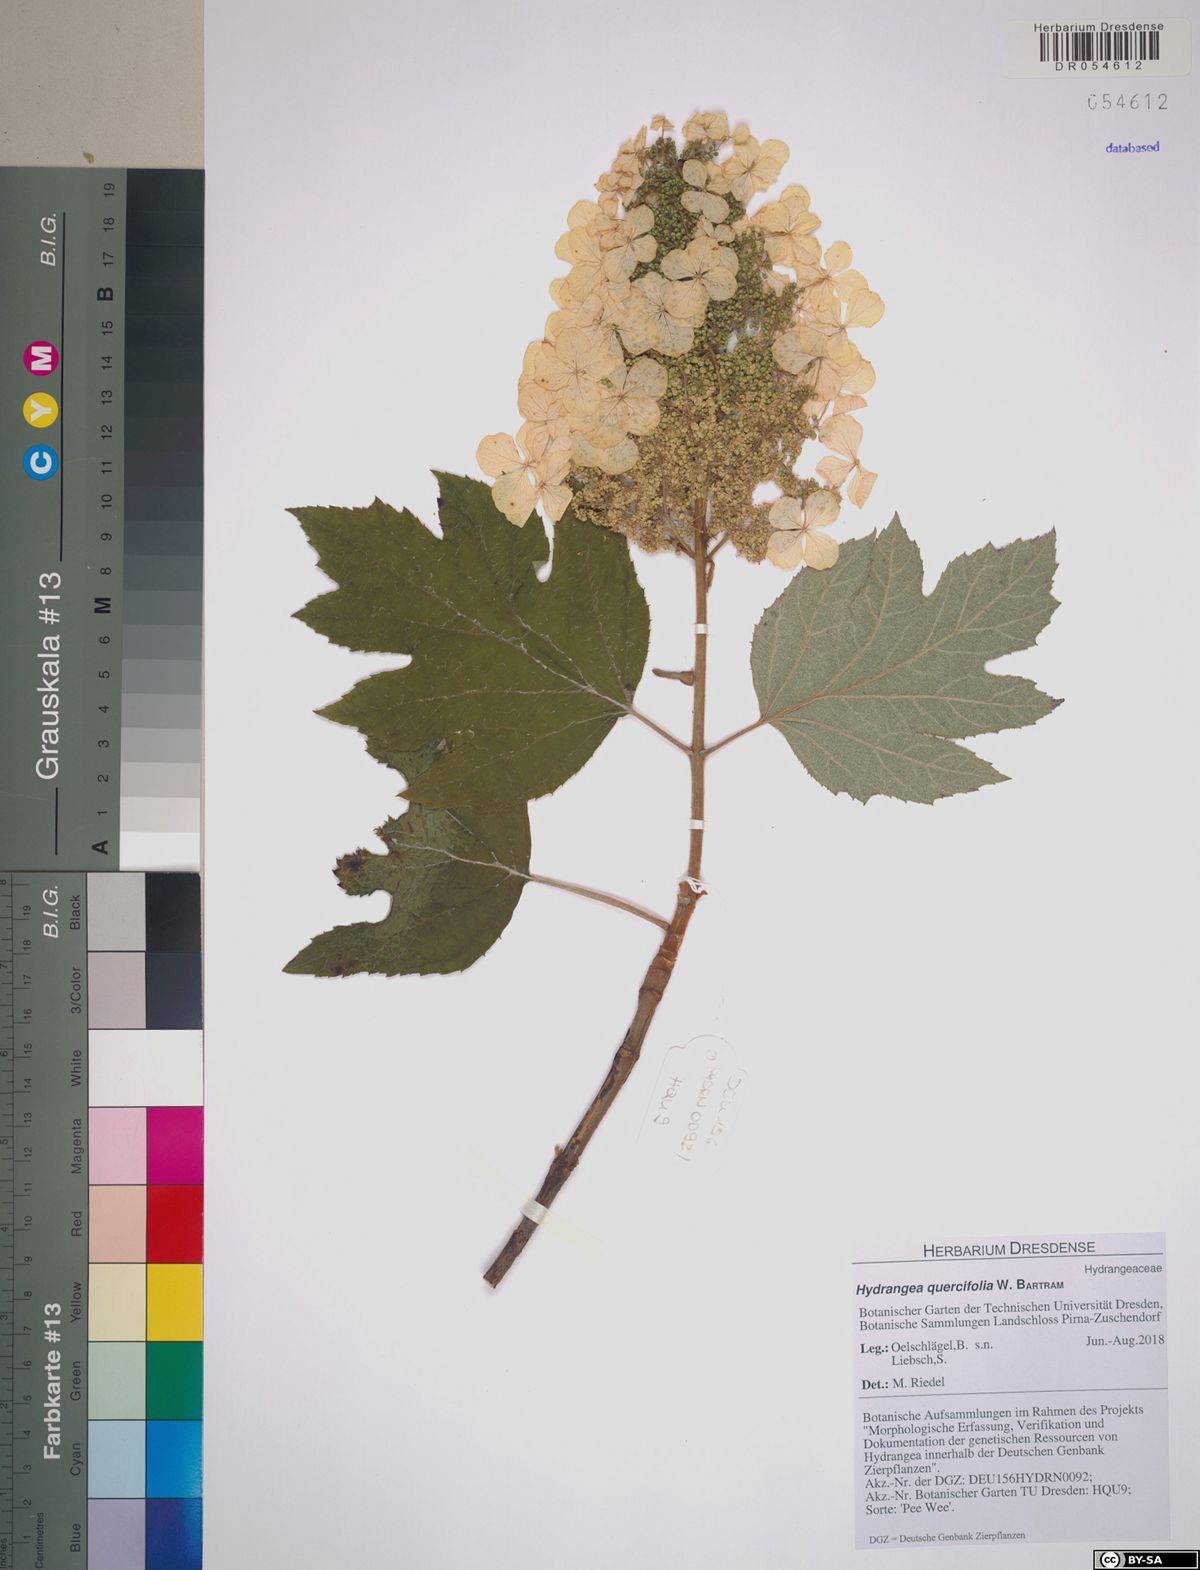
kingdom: Plantae
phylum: Tracheophyta
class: Magnoliopsida
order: Cornales
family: Hydrangeaceae
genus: Hydrangea
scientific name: Hydrangea quercifolia
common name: Oak-leaf hydrangea
